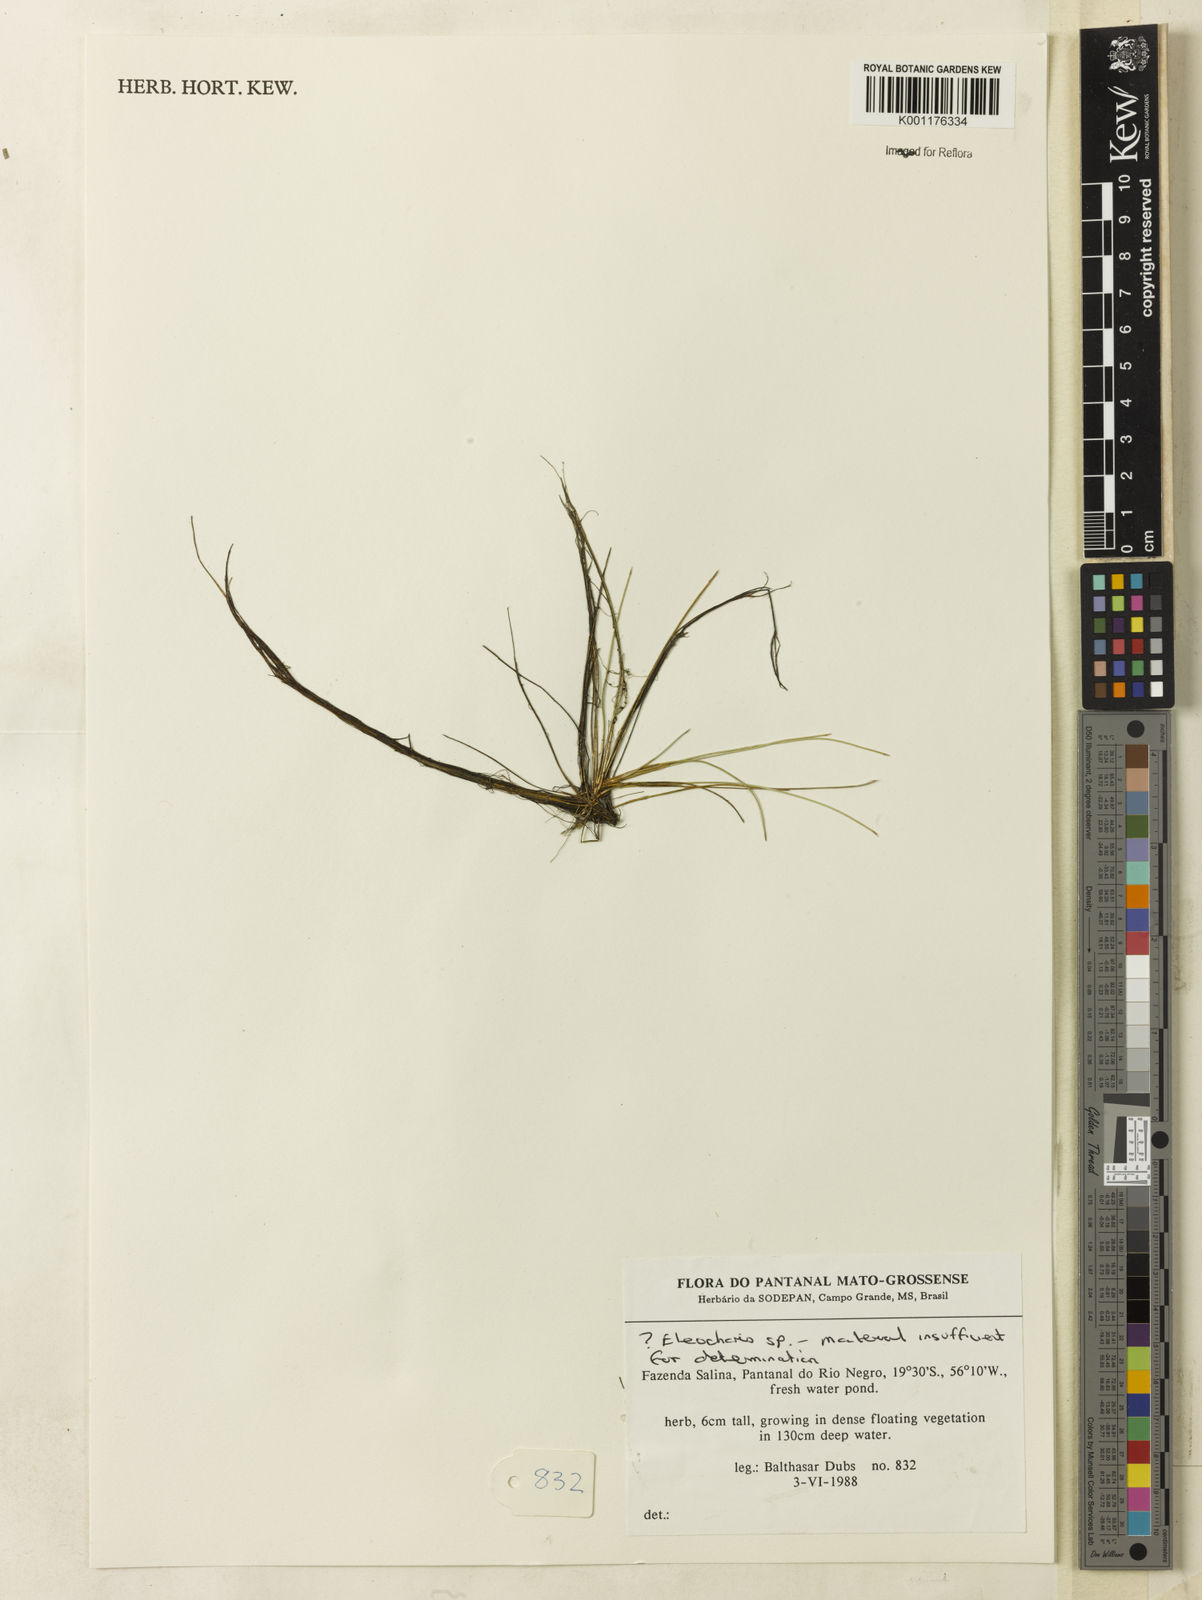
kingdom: Plantae
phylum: Tracheophyta
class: Liliopsida
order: Poales
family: Cyperaceae
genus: Eleocharis
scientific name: Eleocharis
